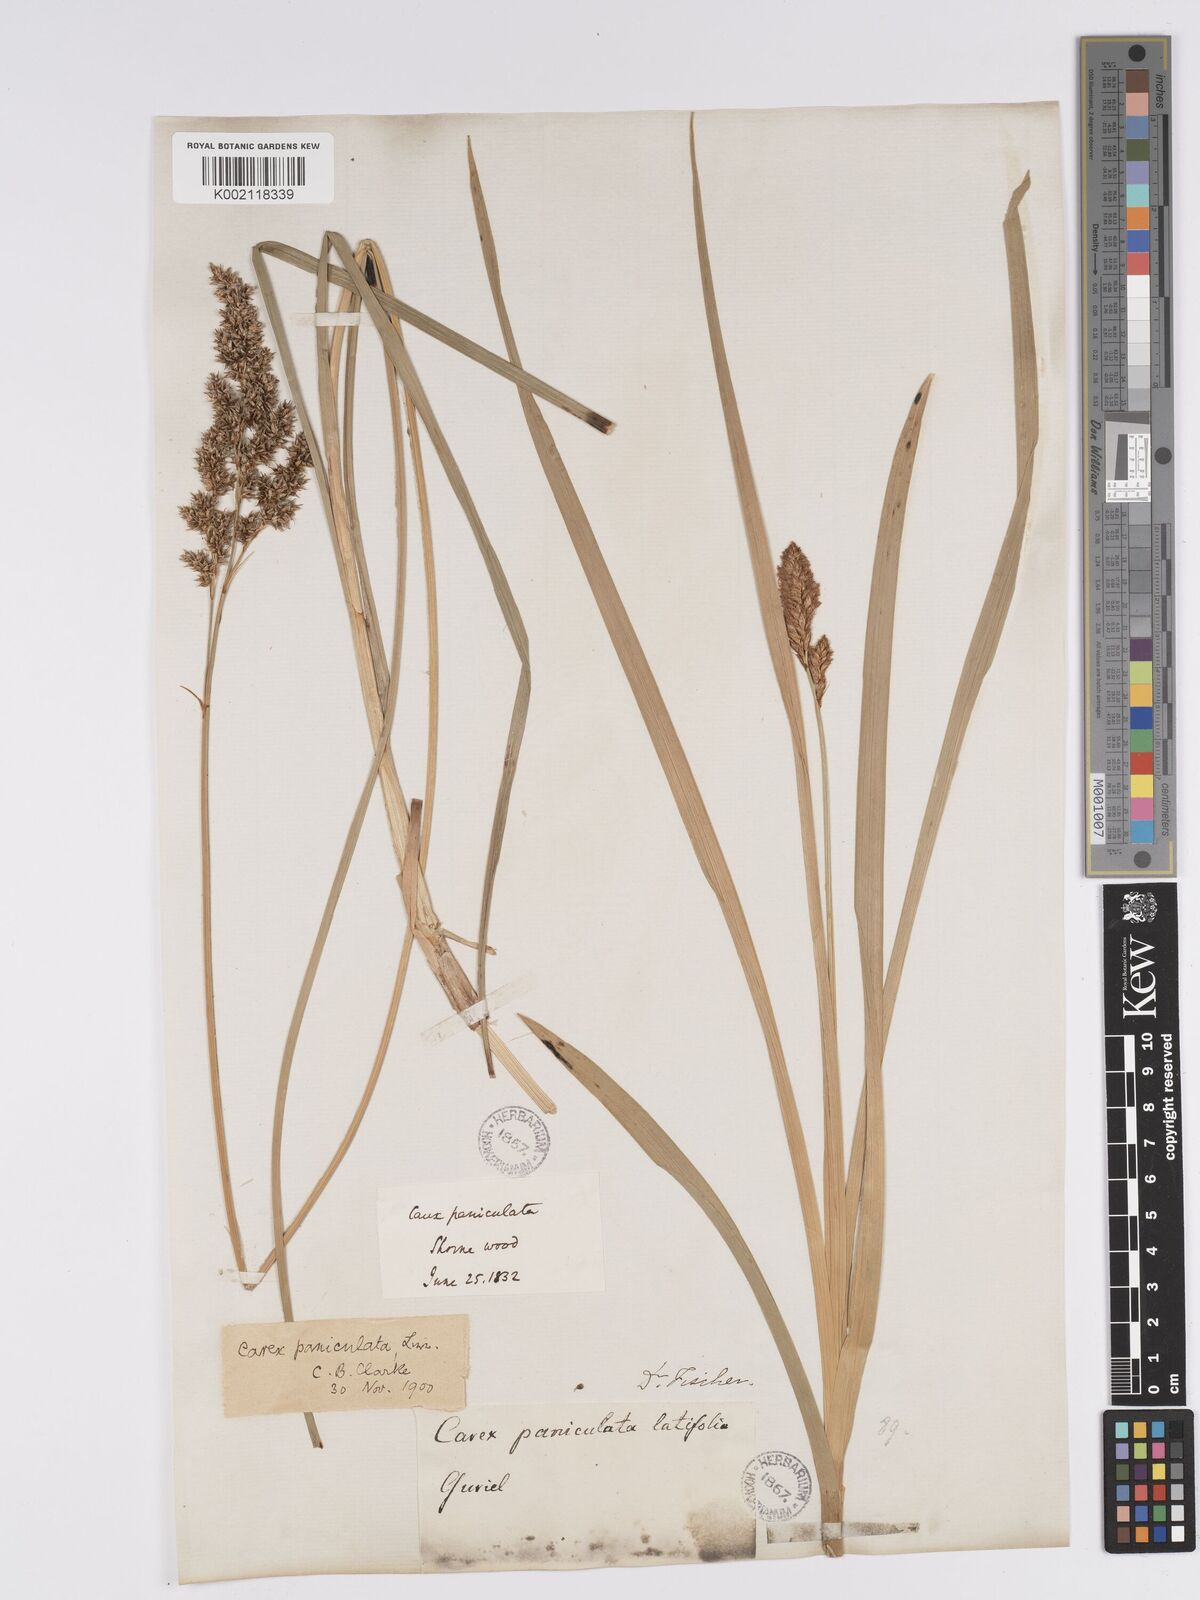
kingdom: Plantae
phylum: Tracheophyta
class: Liliopsida
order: Poales
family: Cyperaceae
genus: Carex
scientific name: Carex paniculata
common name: Greater tussock-sedge
